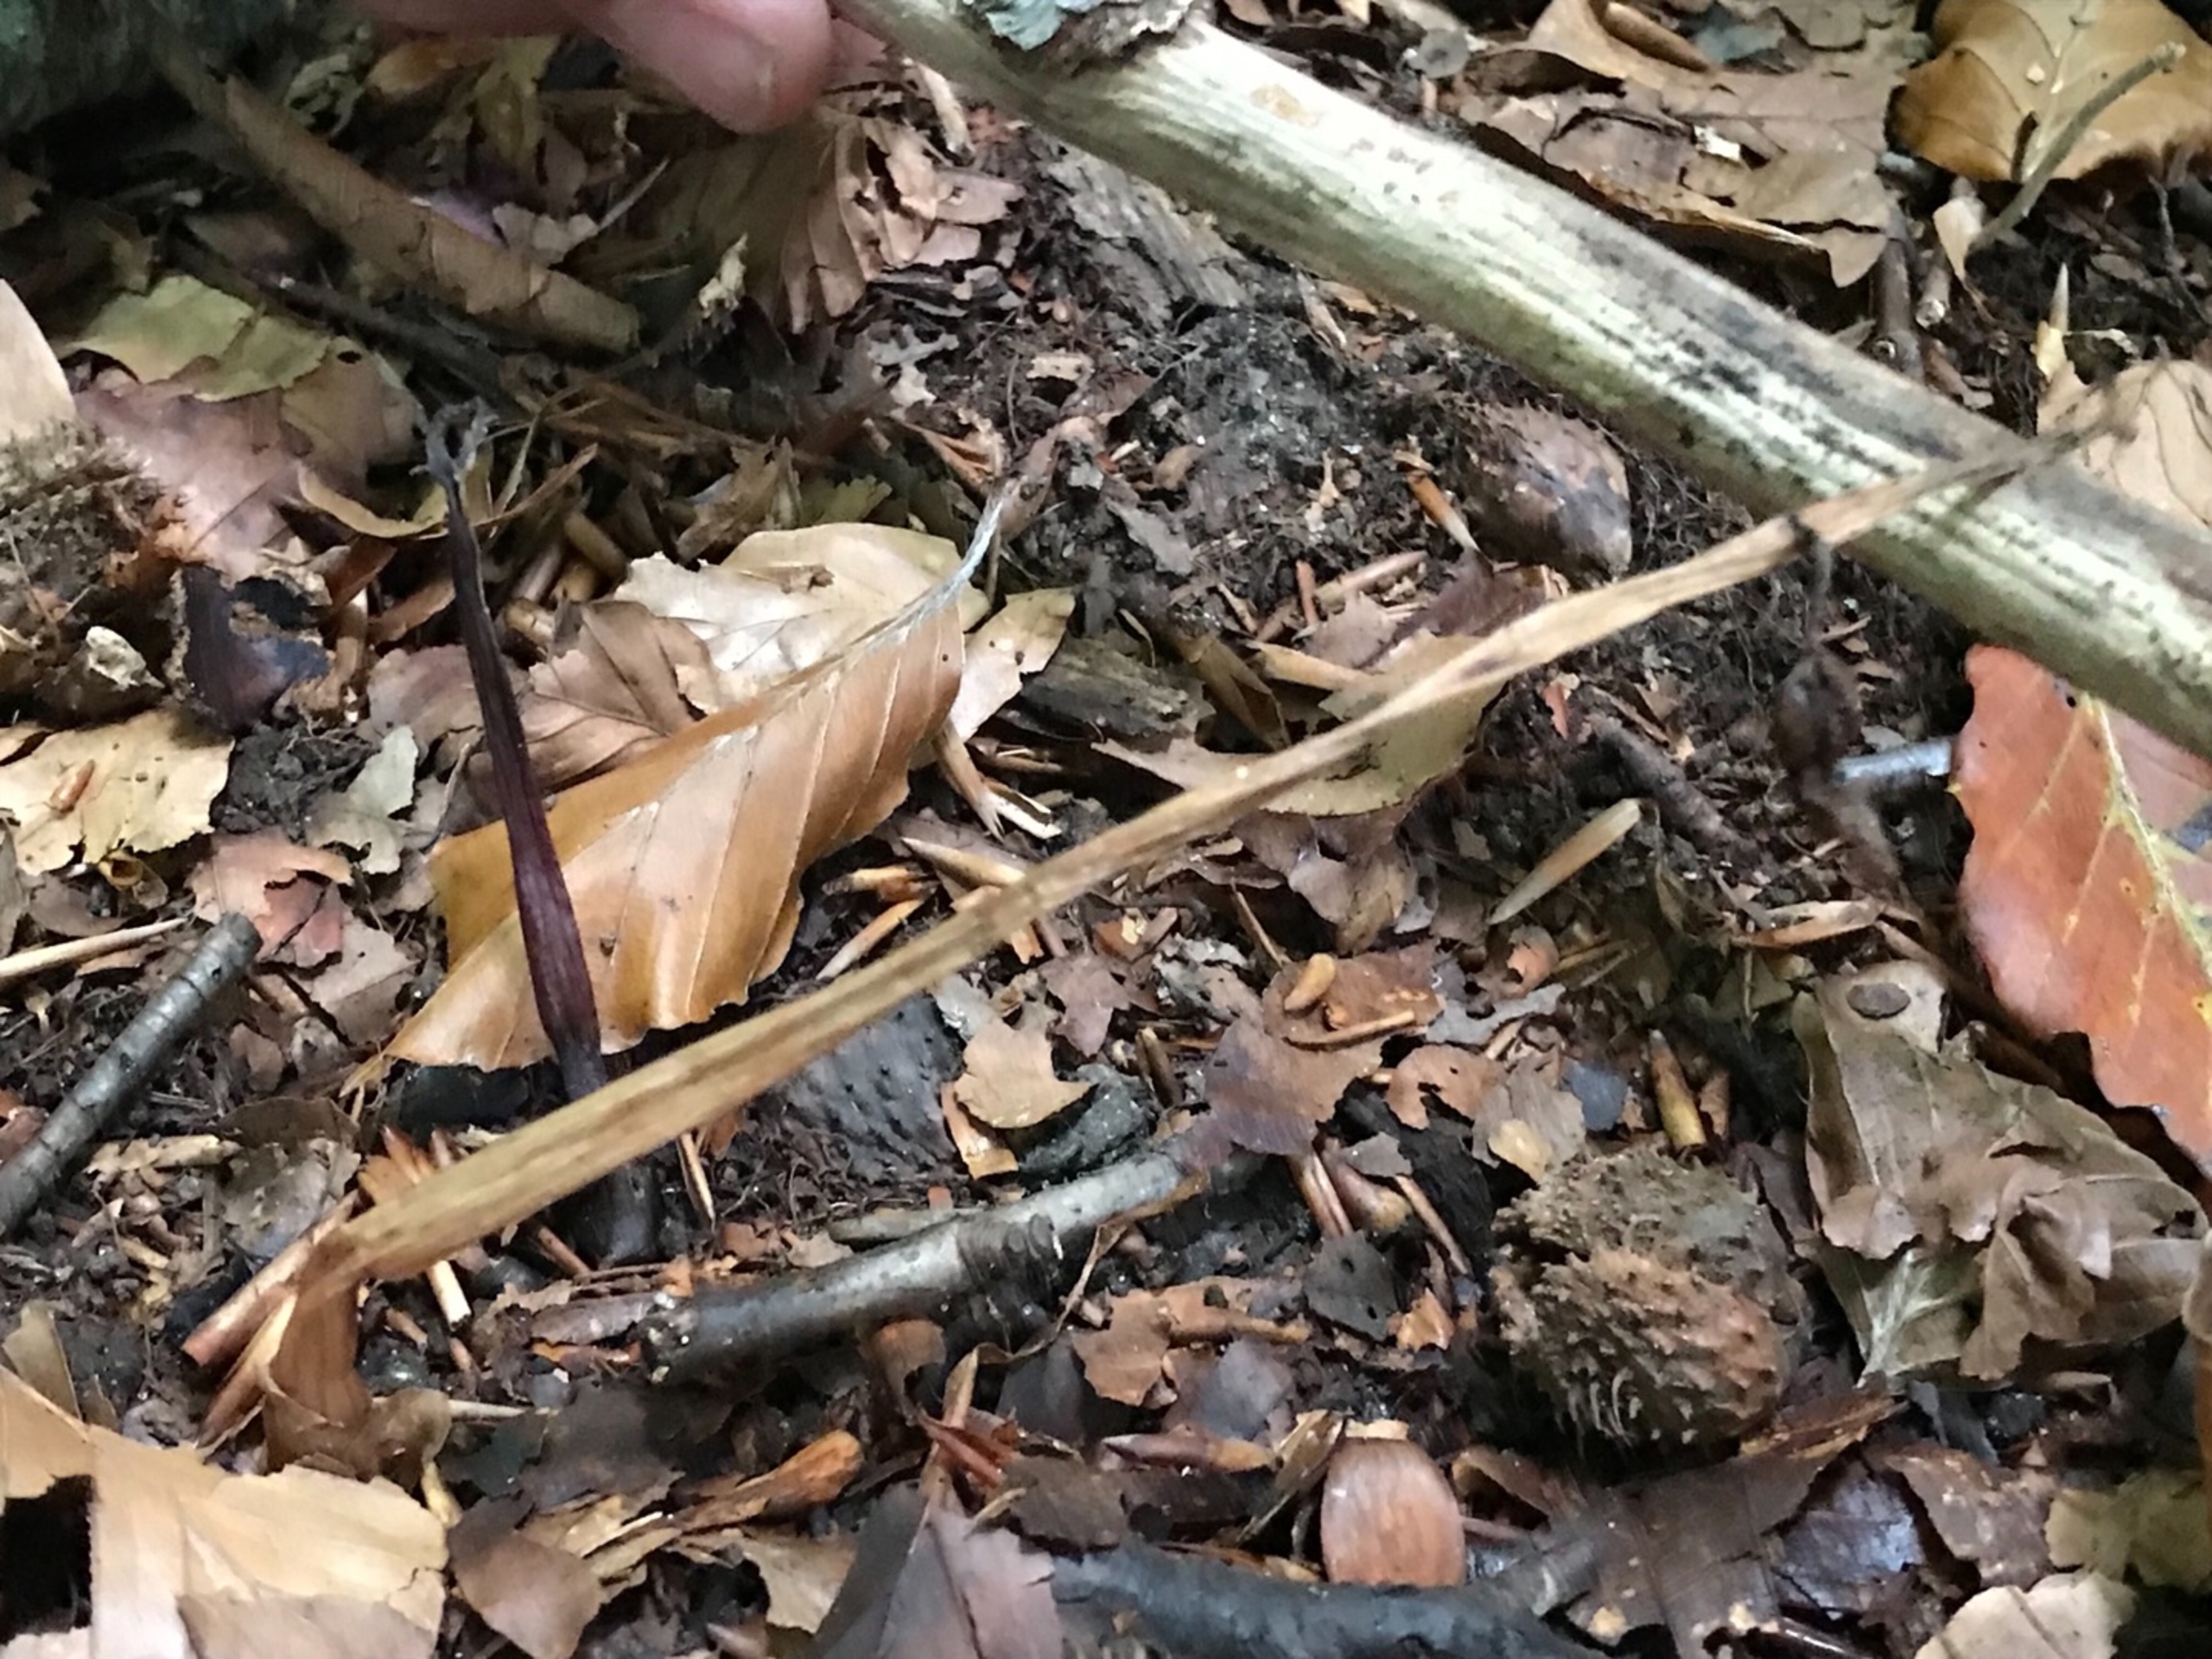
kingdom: Plantae
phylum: Tracheophyta
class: Liliopsida
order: Asparagales
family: Orchidaceae
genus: Epipogium
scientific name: Epipogium aphyllum
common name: Knælæbe
